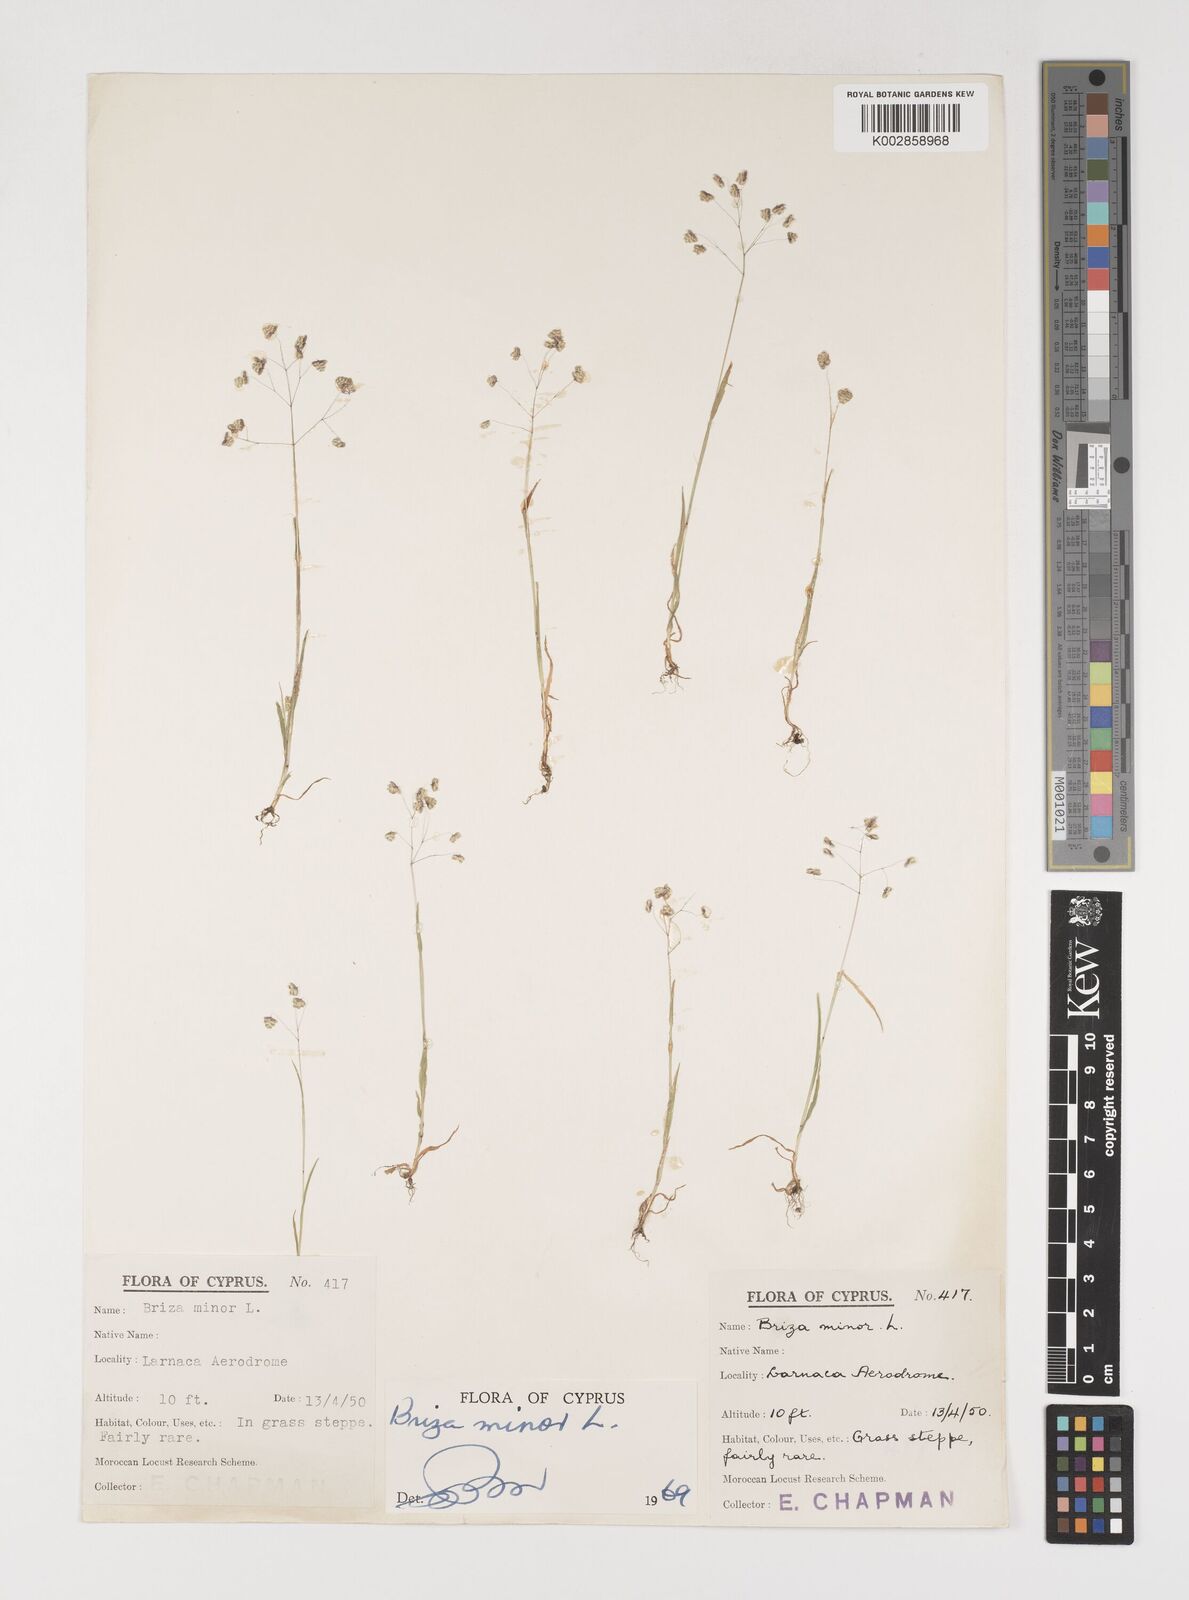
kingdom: Plantae
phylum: Tracheophyta
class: Liliopsida
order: Poales
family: Poaceae
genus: Briza
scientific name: Briza minor
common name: Lesser quaking-grass
